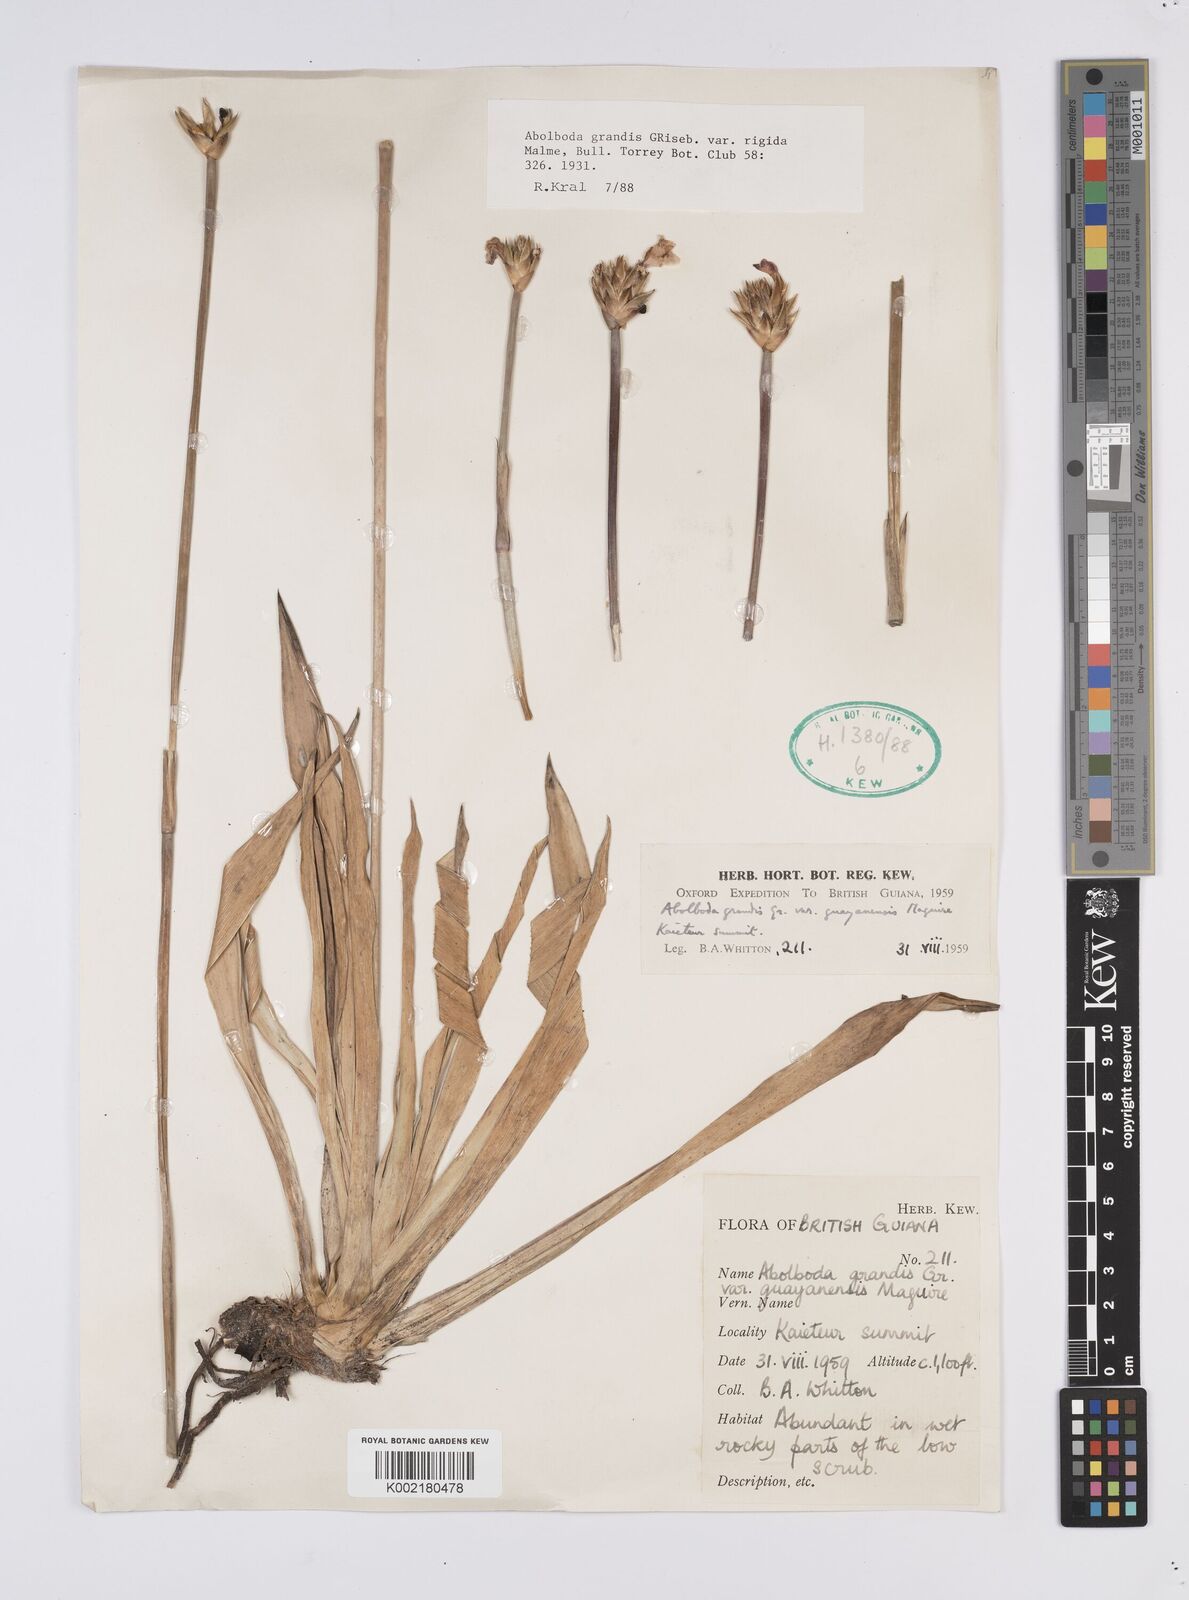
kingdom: Plantae
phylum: Tracheophyta
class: Liliopsida
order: Poales
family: Xyridaceae
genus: Abolboda
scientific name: Abolboda grandis
